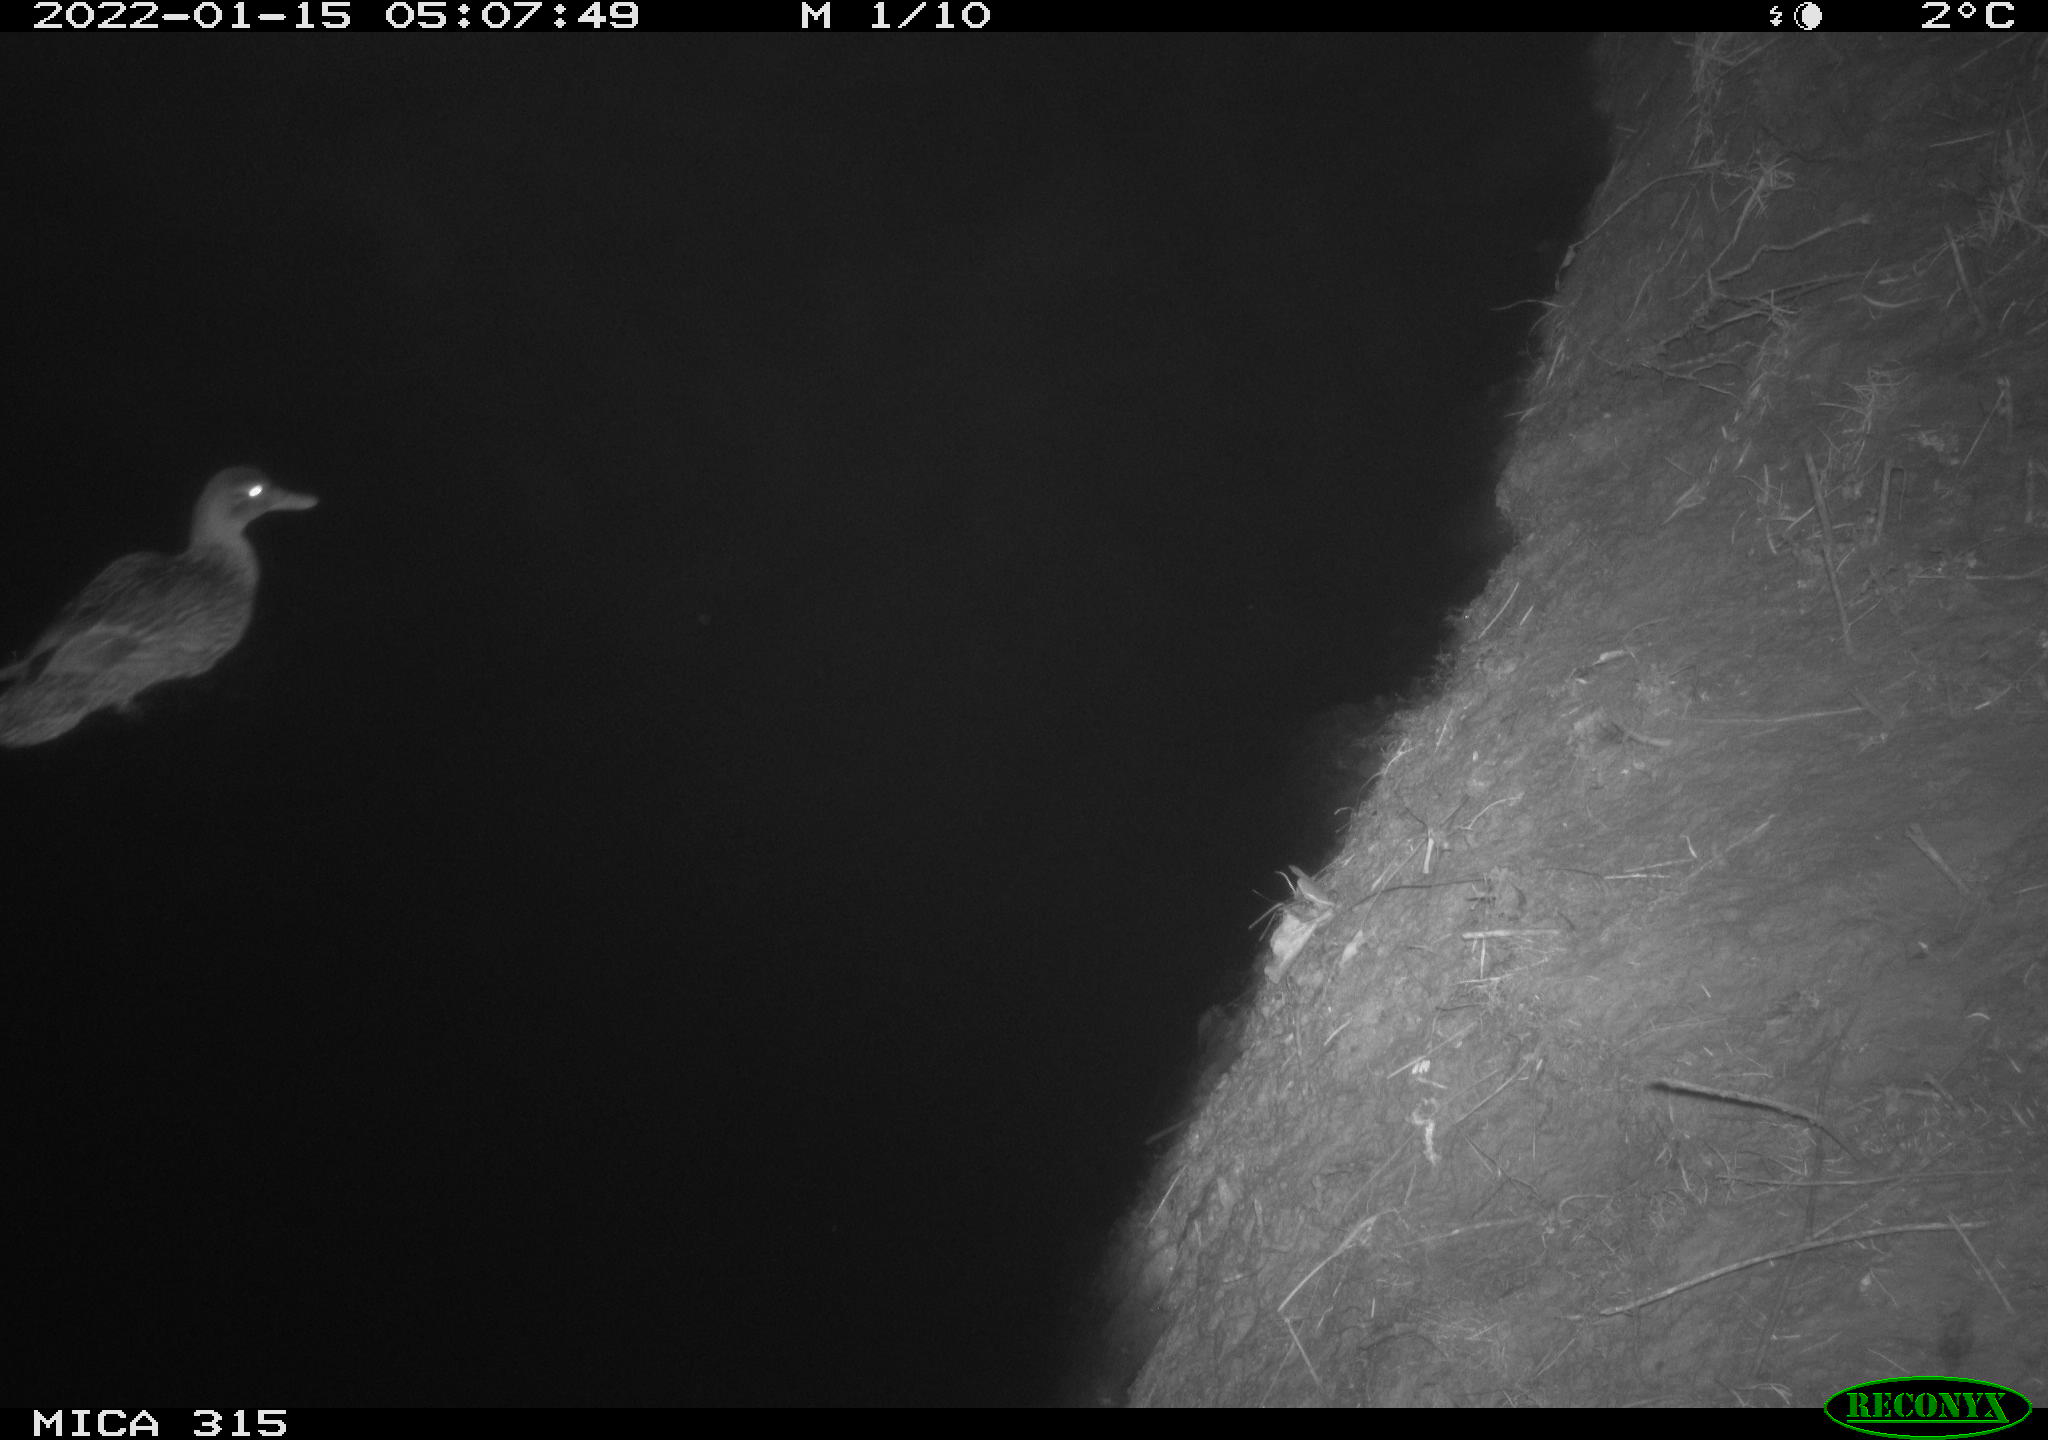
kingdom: Animalia
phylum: Chordata
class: Aves
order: Anseriformes
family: Anatidae
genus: Anas
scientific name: Anas
